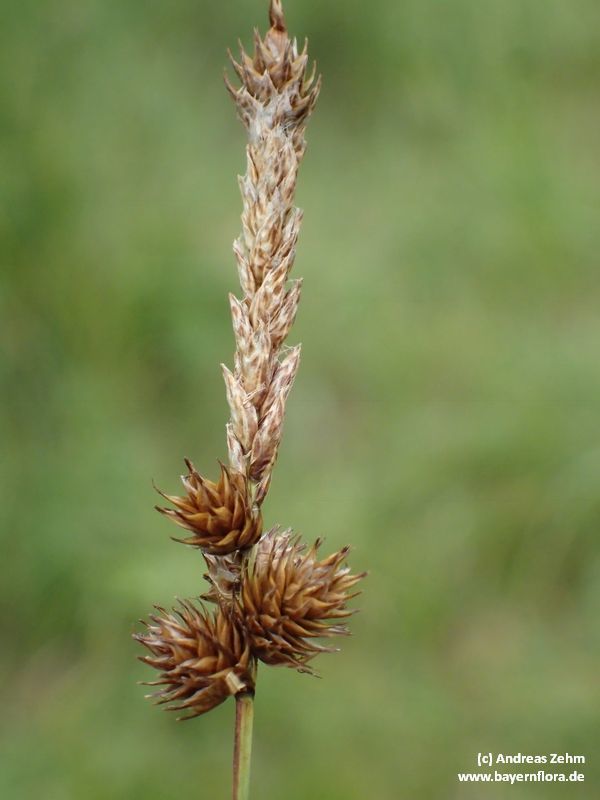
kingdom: Plantae
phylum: Tracheophyta
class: Liliopsida
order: Poales
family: Cyperaceae
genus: Carex
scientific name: Carex disticha
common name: Brown sedge
